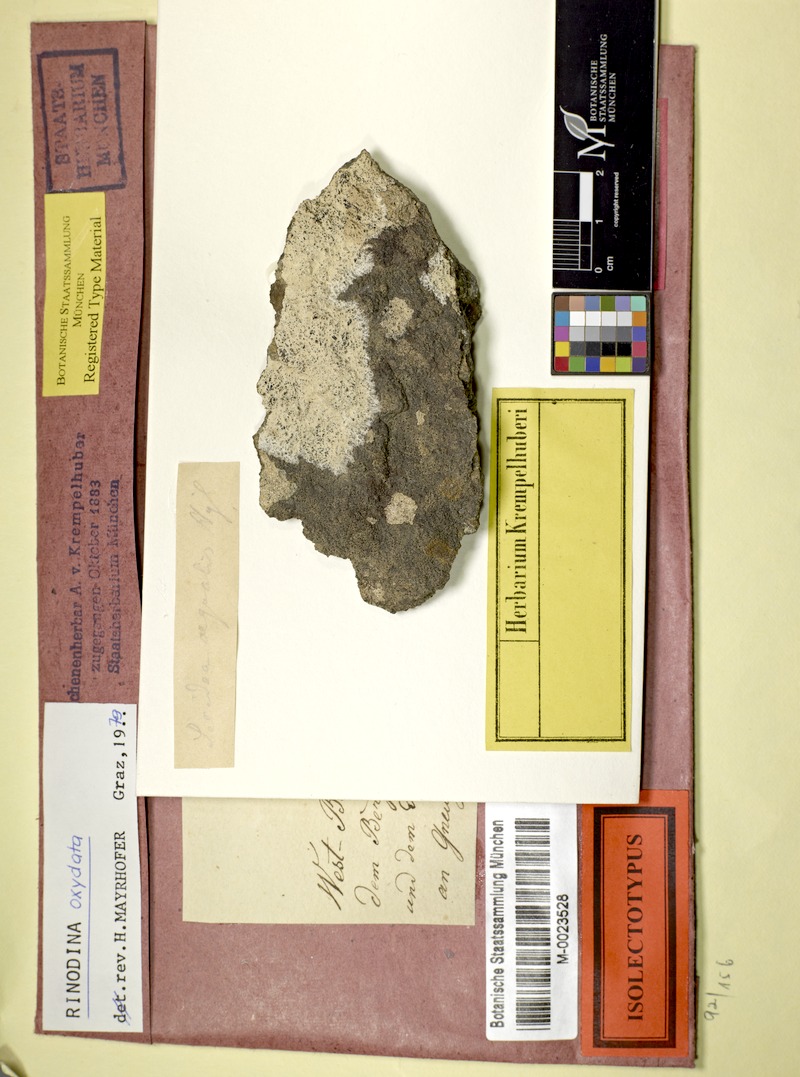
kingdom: Fungi
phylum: Ascomycota
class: Lecanoromycetes
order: Caliciales
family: Physciaceae
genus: Mischoblastia
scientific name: Mischoblastia oxydata
